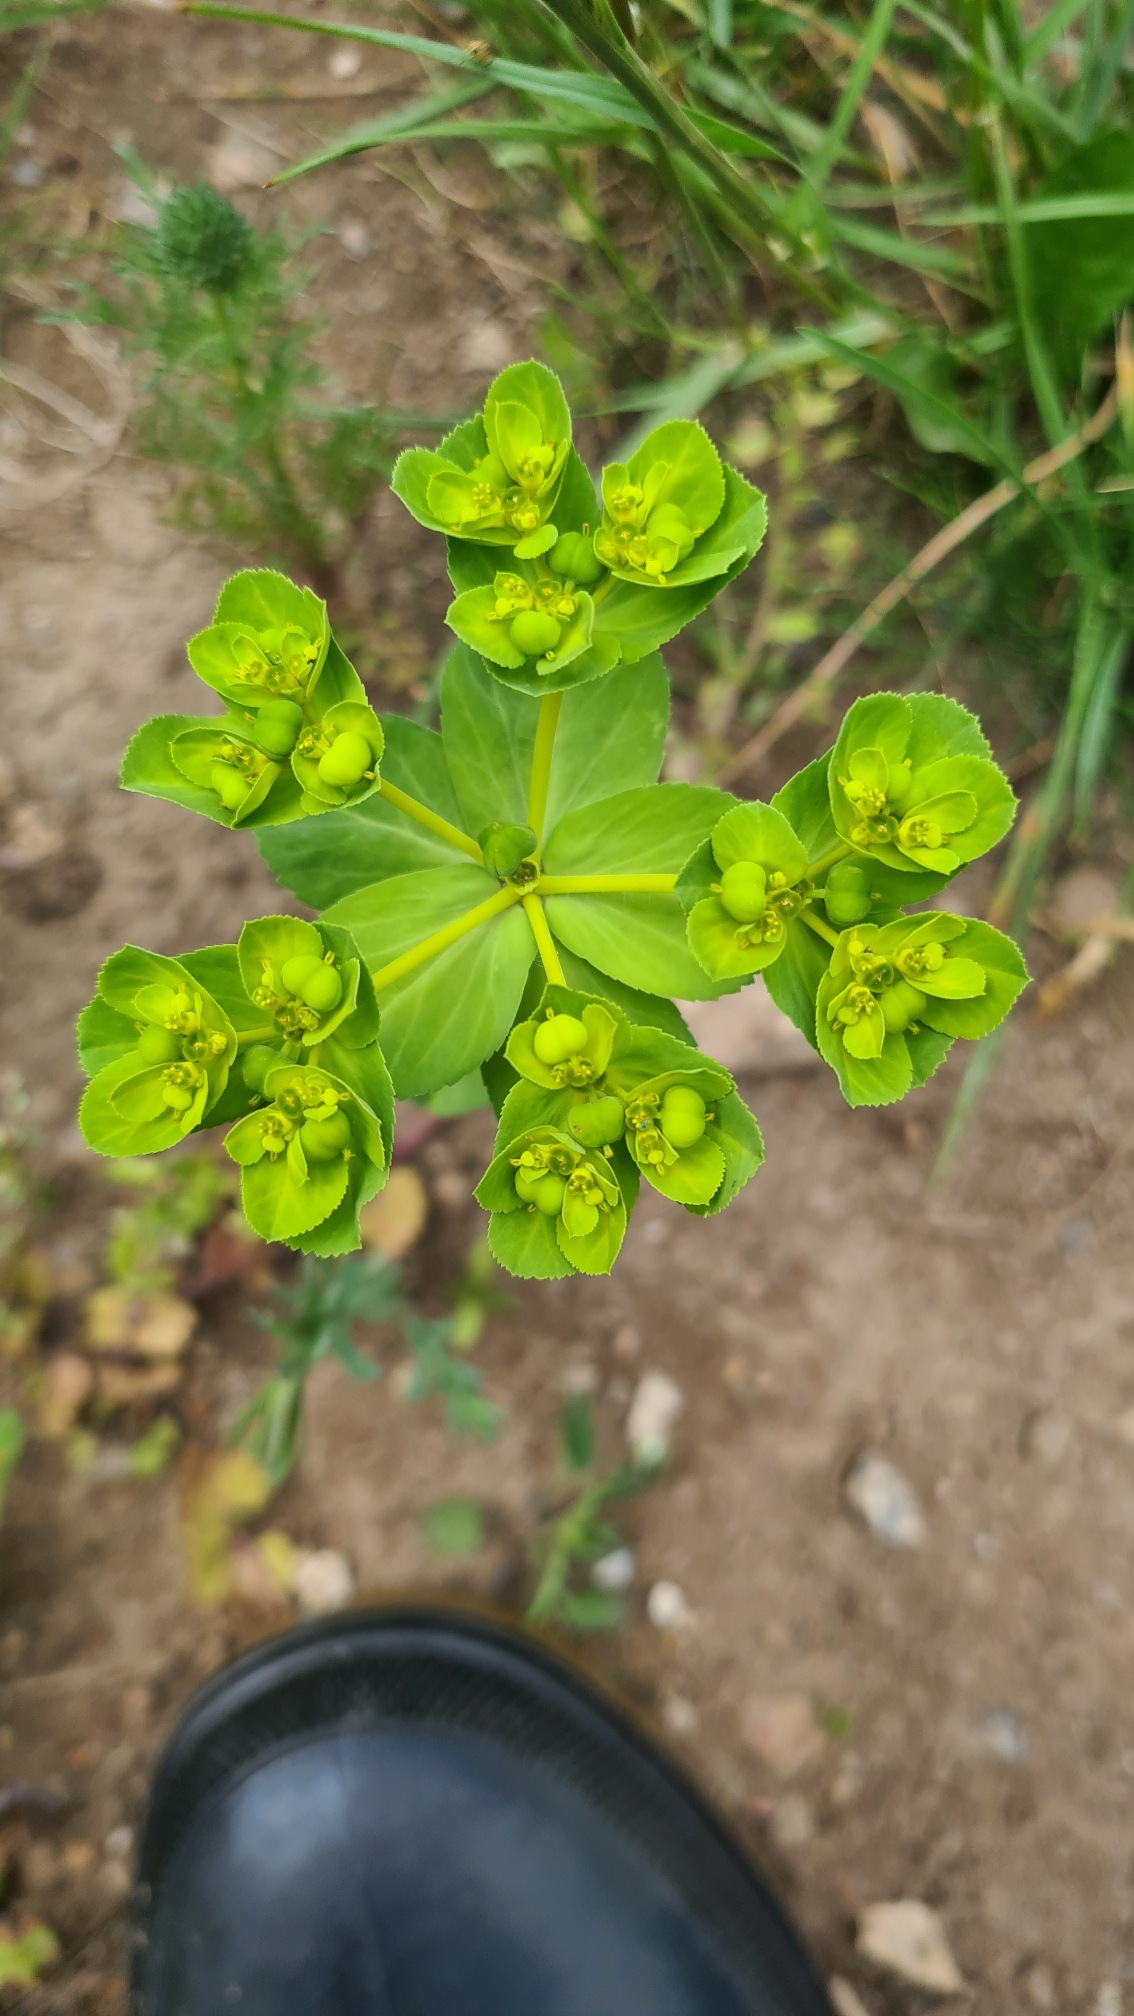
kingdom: Plantae
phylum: Tracheophyta
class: Magnoliopsida
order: Malpighiales
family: Euphorbiaceae
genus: Euphorbia
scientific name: Euphorbia helioscopia
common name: Skærm-vortemælk
